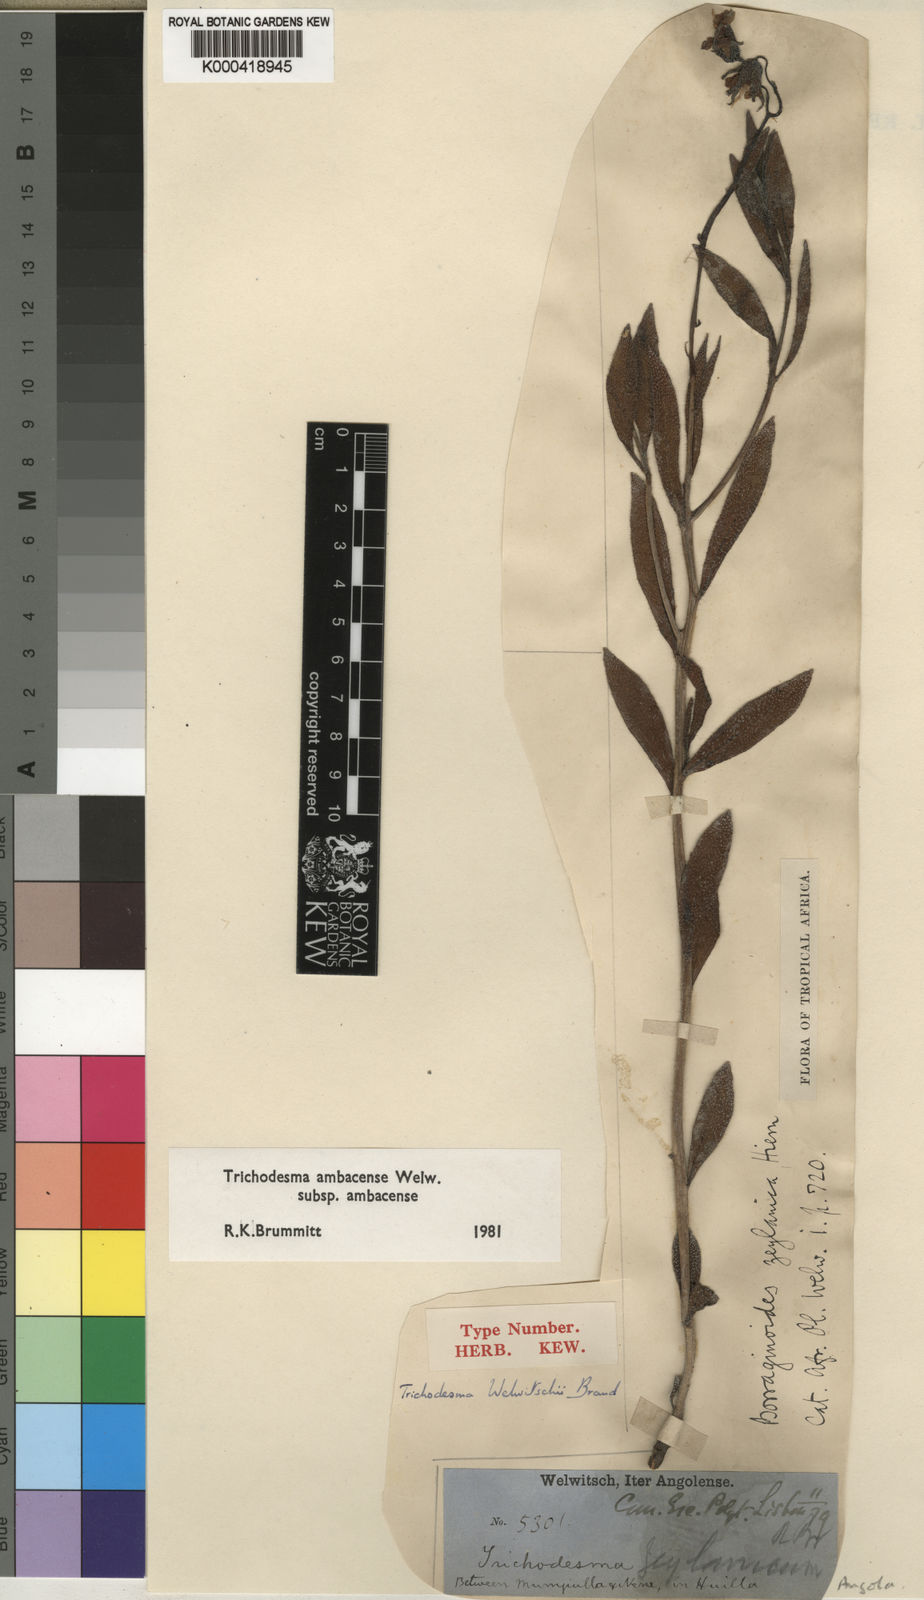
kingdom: Plantae
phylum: Tracheophyta
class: Magnoliopsida
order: Boraginales
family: Boraginaceae
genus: Trichodesma
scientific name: Trichodesma ambacense
